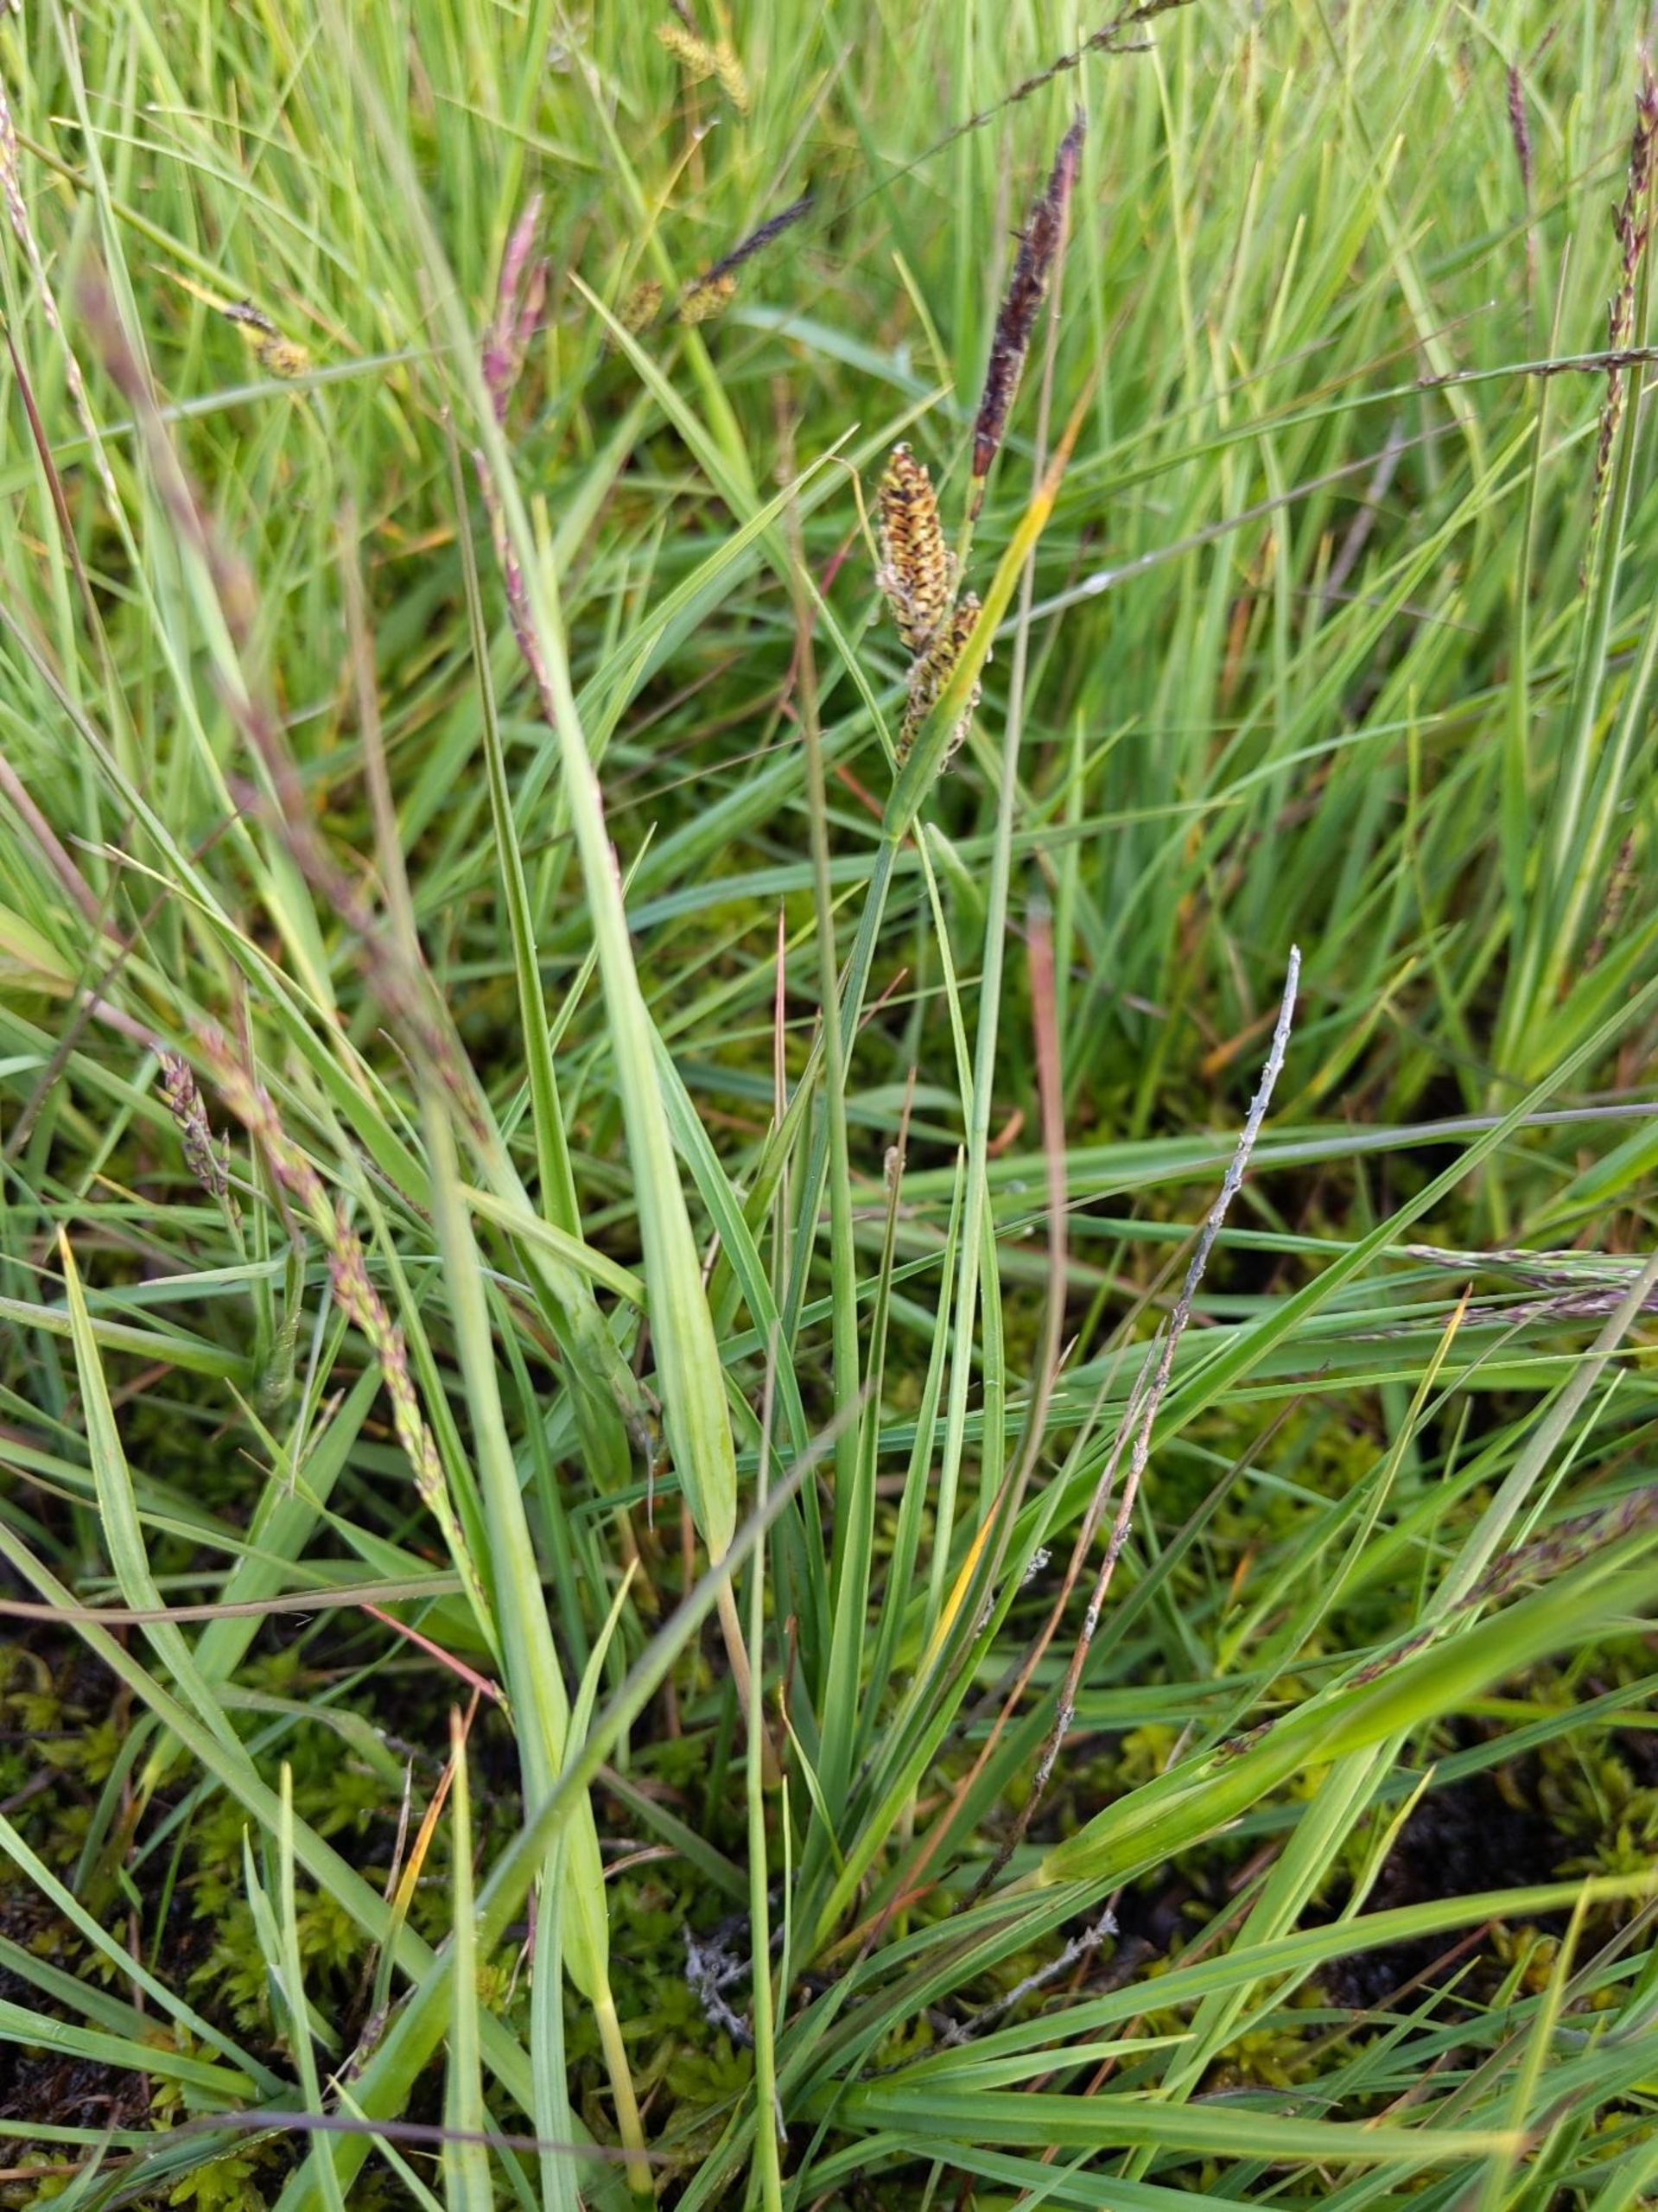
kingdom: Plantae
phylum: Tracheophyta
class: Liliopsida
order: Poales
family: Cyperaceae
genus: Carex
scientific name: Carex nigra
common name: Almindelig star
